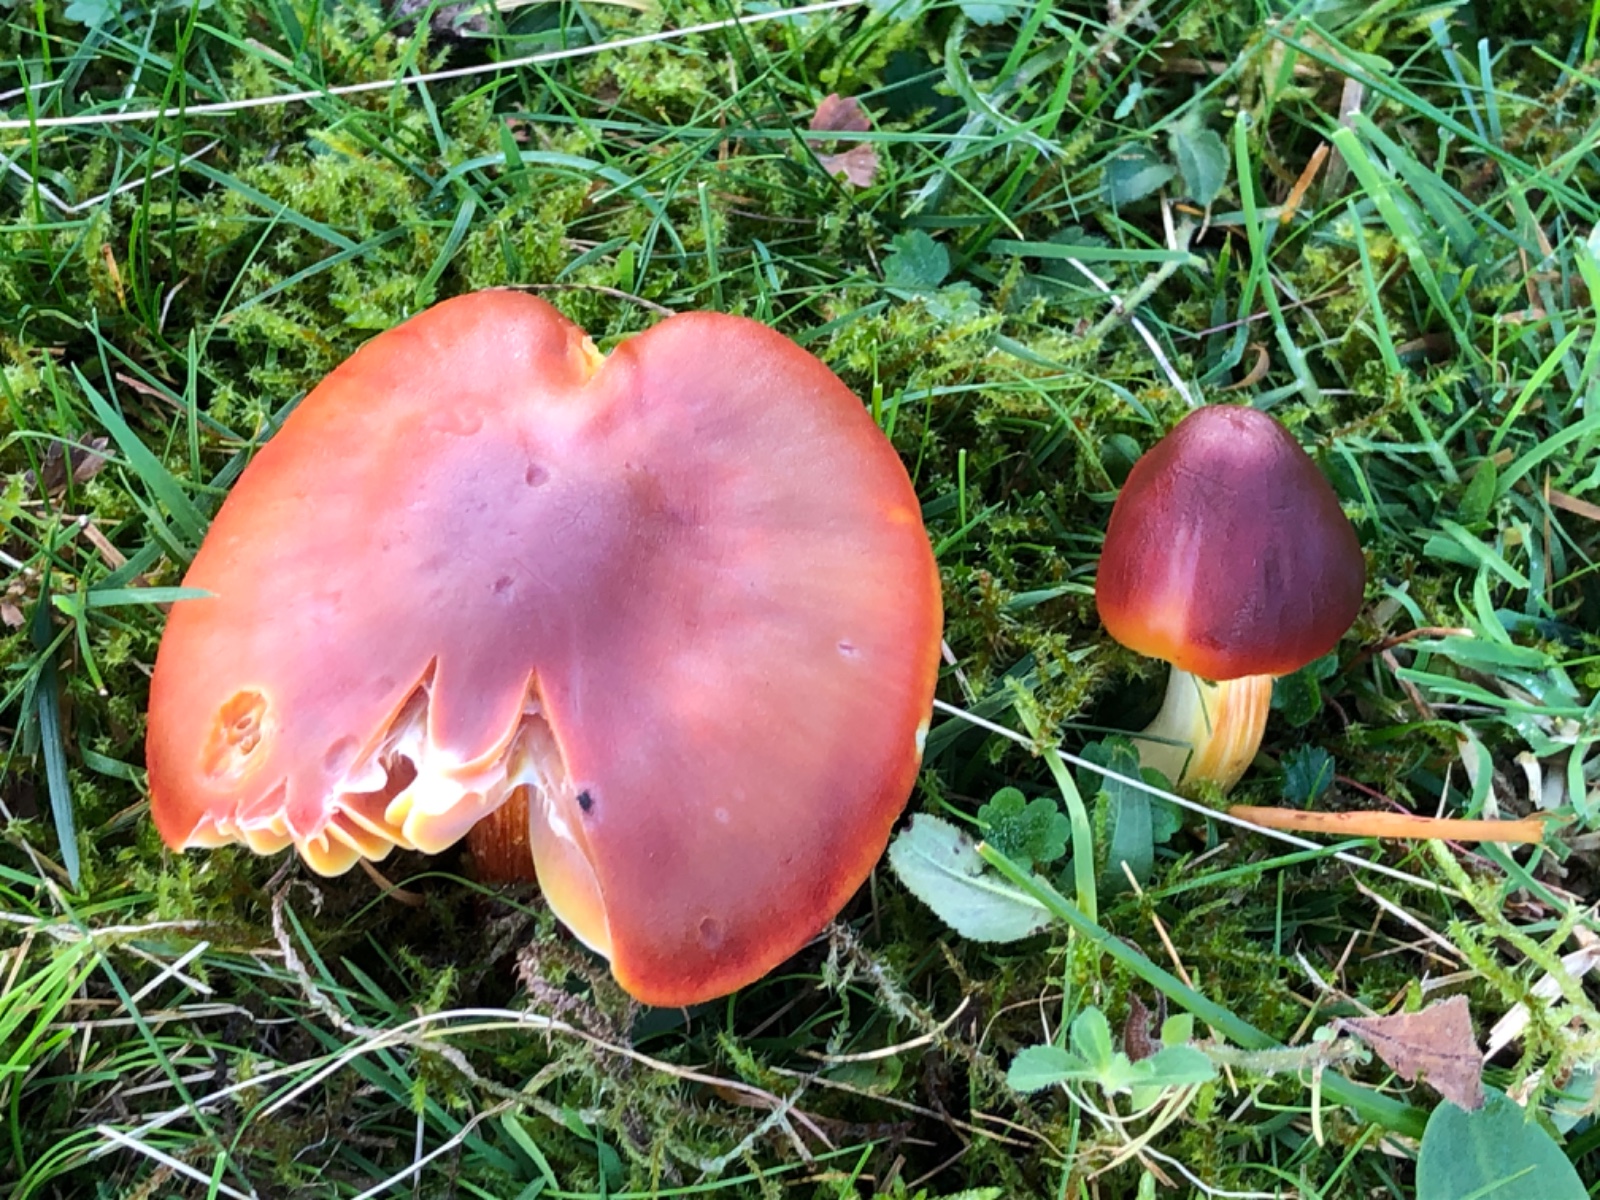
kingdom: Fungi
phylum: Basidiomycota
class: Agaricomycetes
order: Agaricales
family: Hygrophoraceae
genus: Hygrocybe
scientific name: Hygrocybe punicea
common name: skarlagen-vokshat
